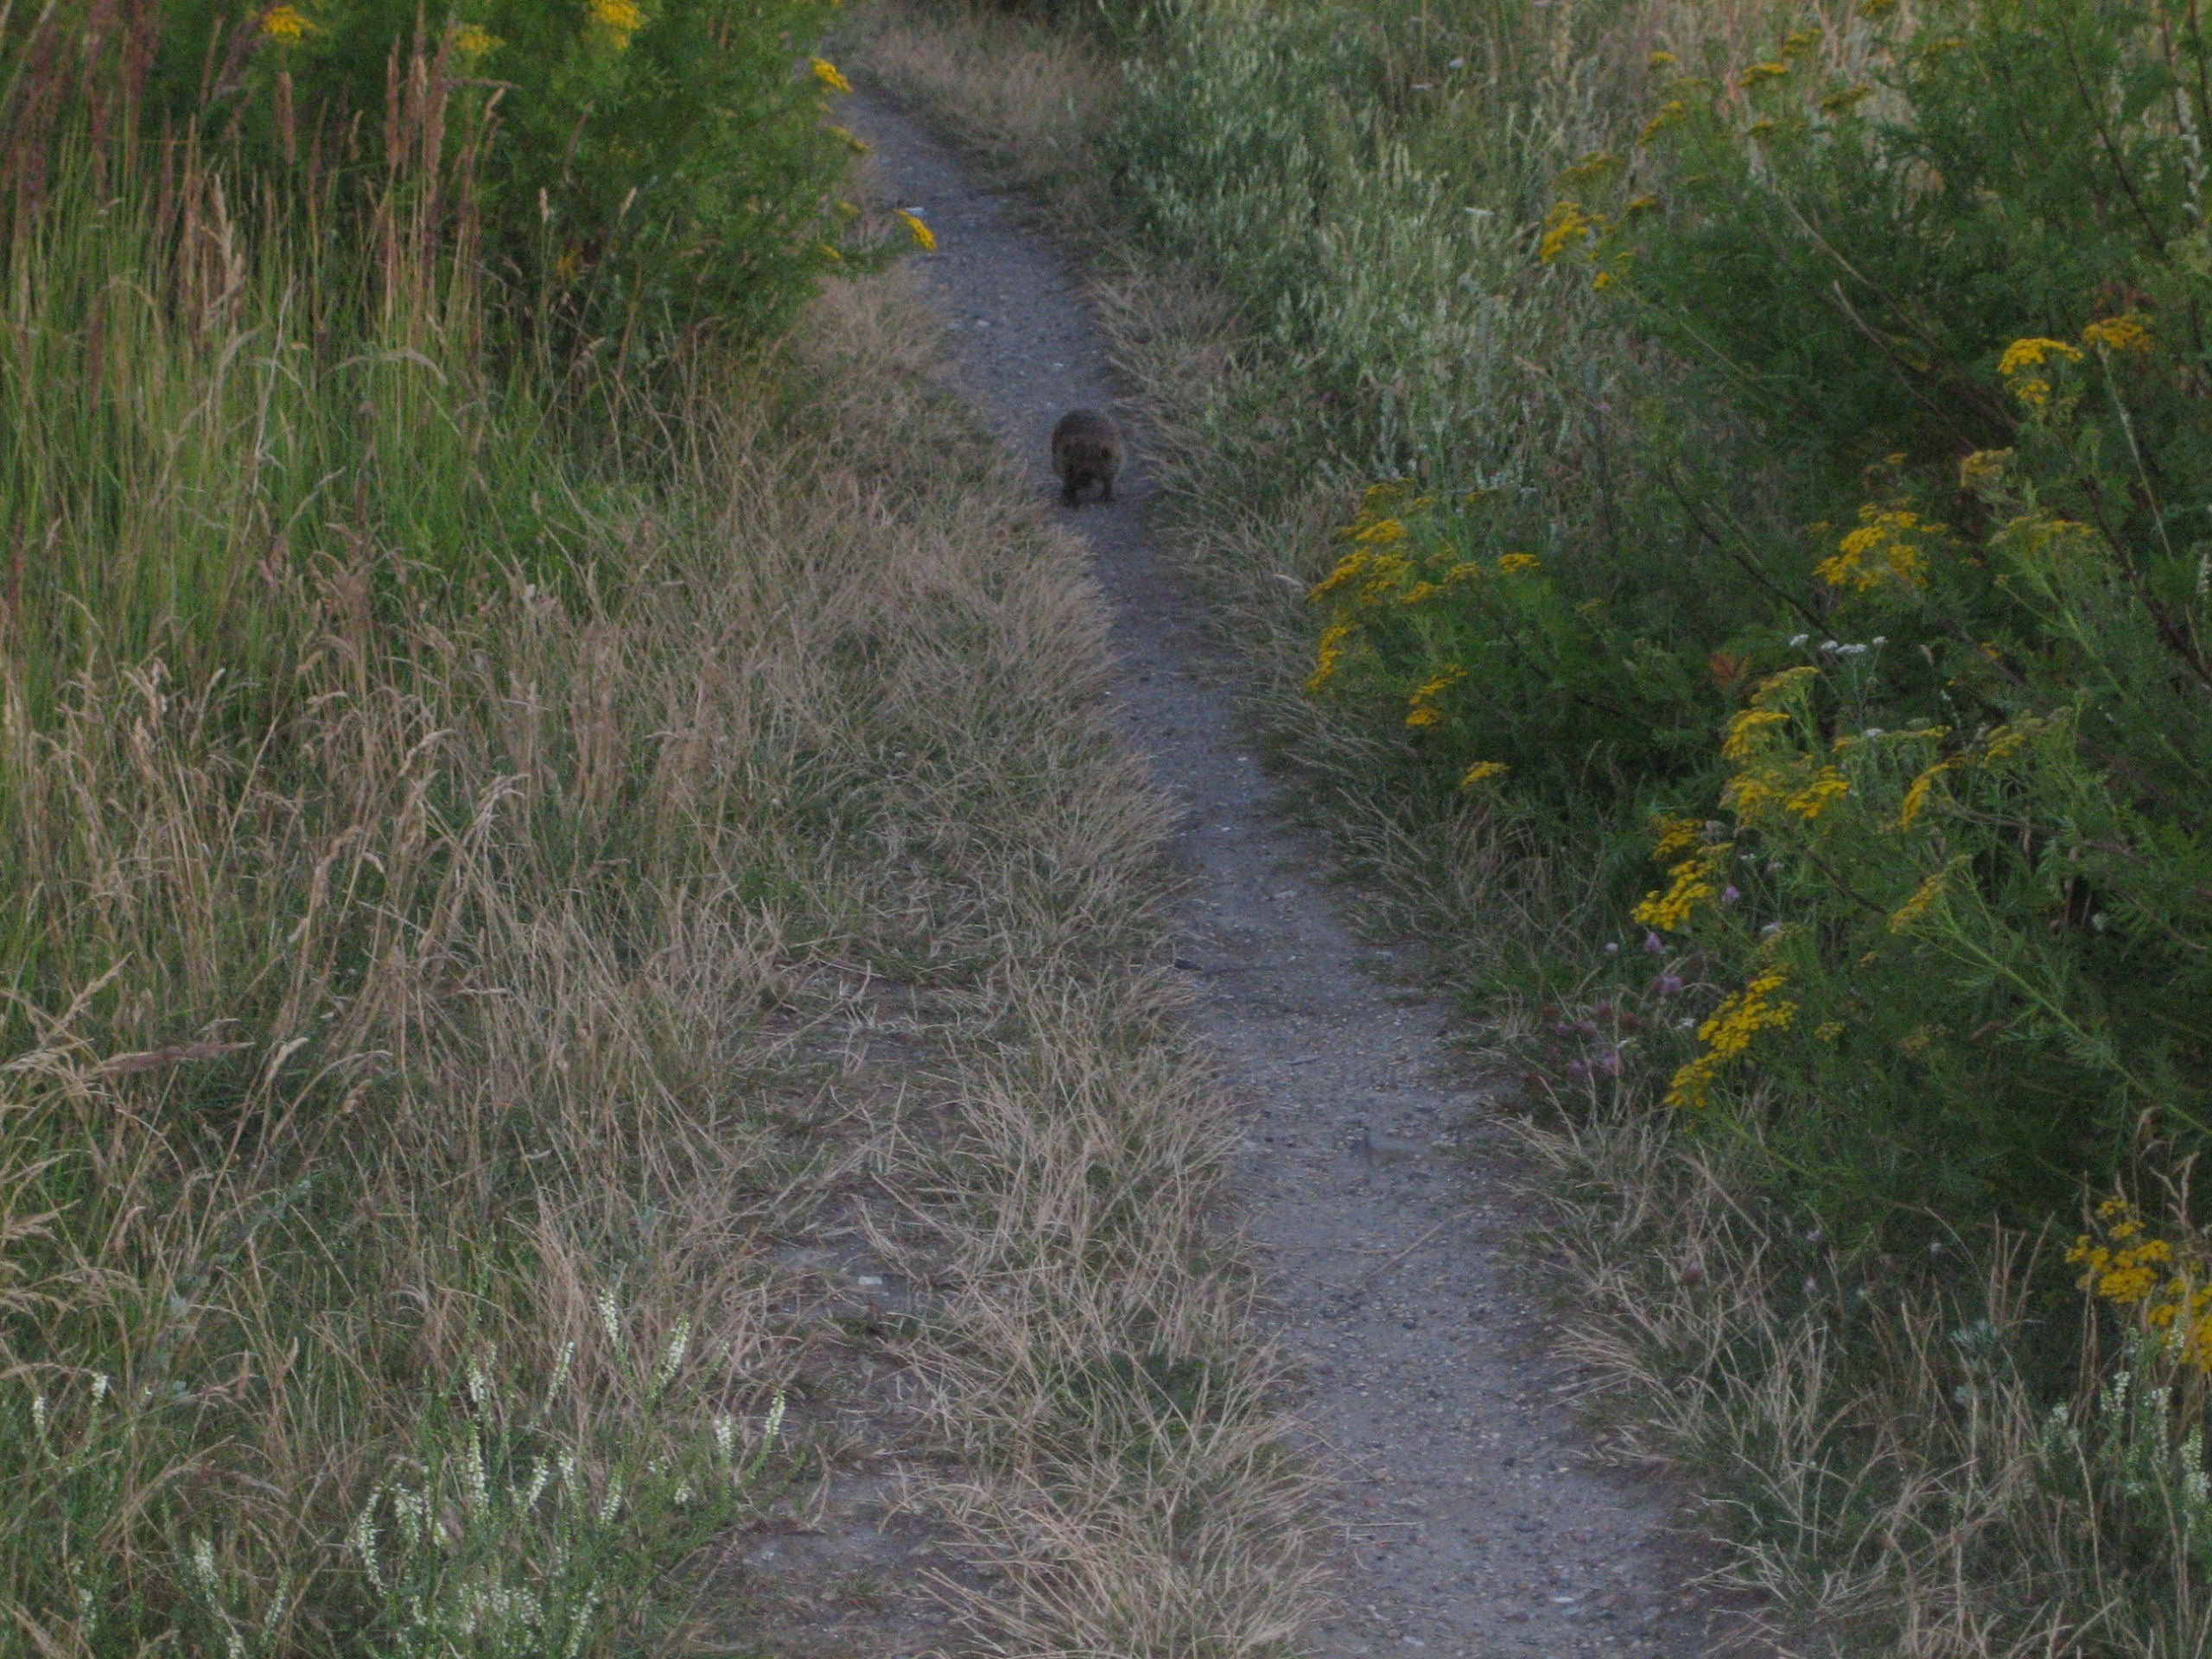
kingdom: Animalia
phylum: Chordata
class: Mammalia
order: Erinaceomorpha
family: Erinaceidae
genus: Erinaceus
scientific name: Erinaceus europaeus
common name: Pindsvin
